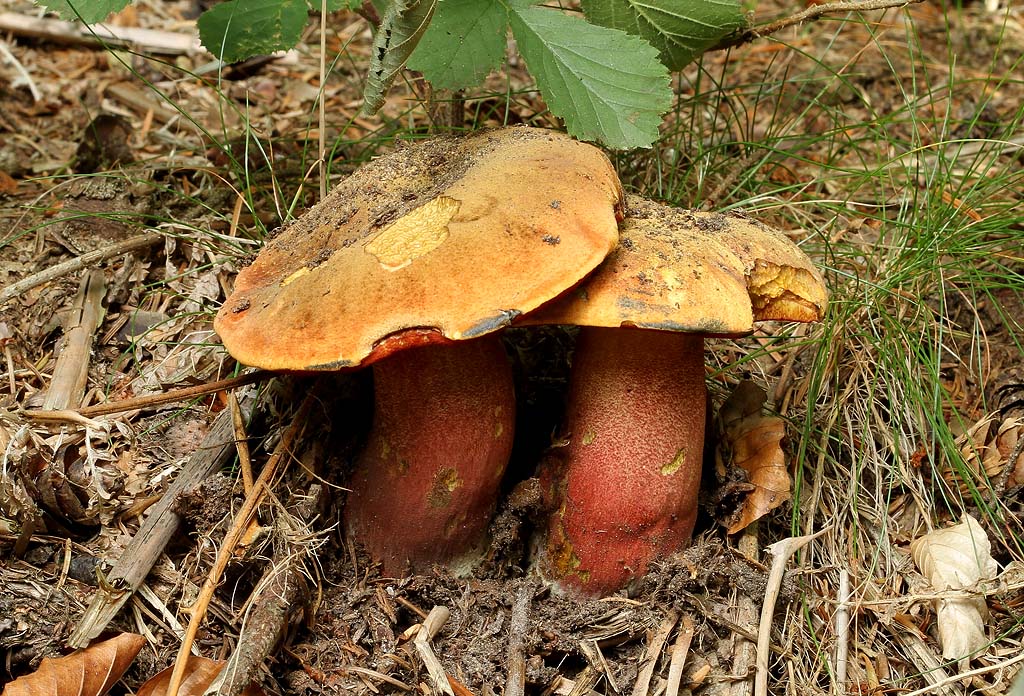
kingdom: Fungi
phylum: Basidiomycota
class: Agaricomycetes
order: Boletales
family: Boletaceae
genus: Neoboletus
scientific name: Neoboletus erythropus
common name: punktstokket indigorørhat
